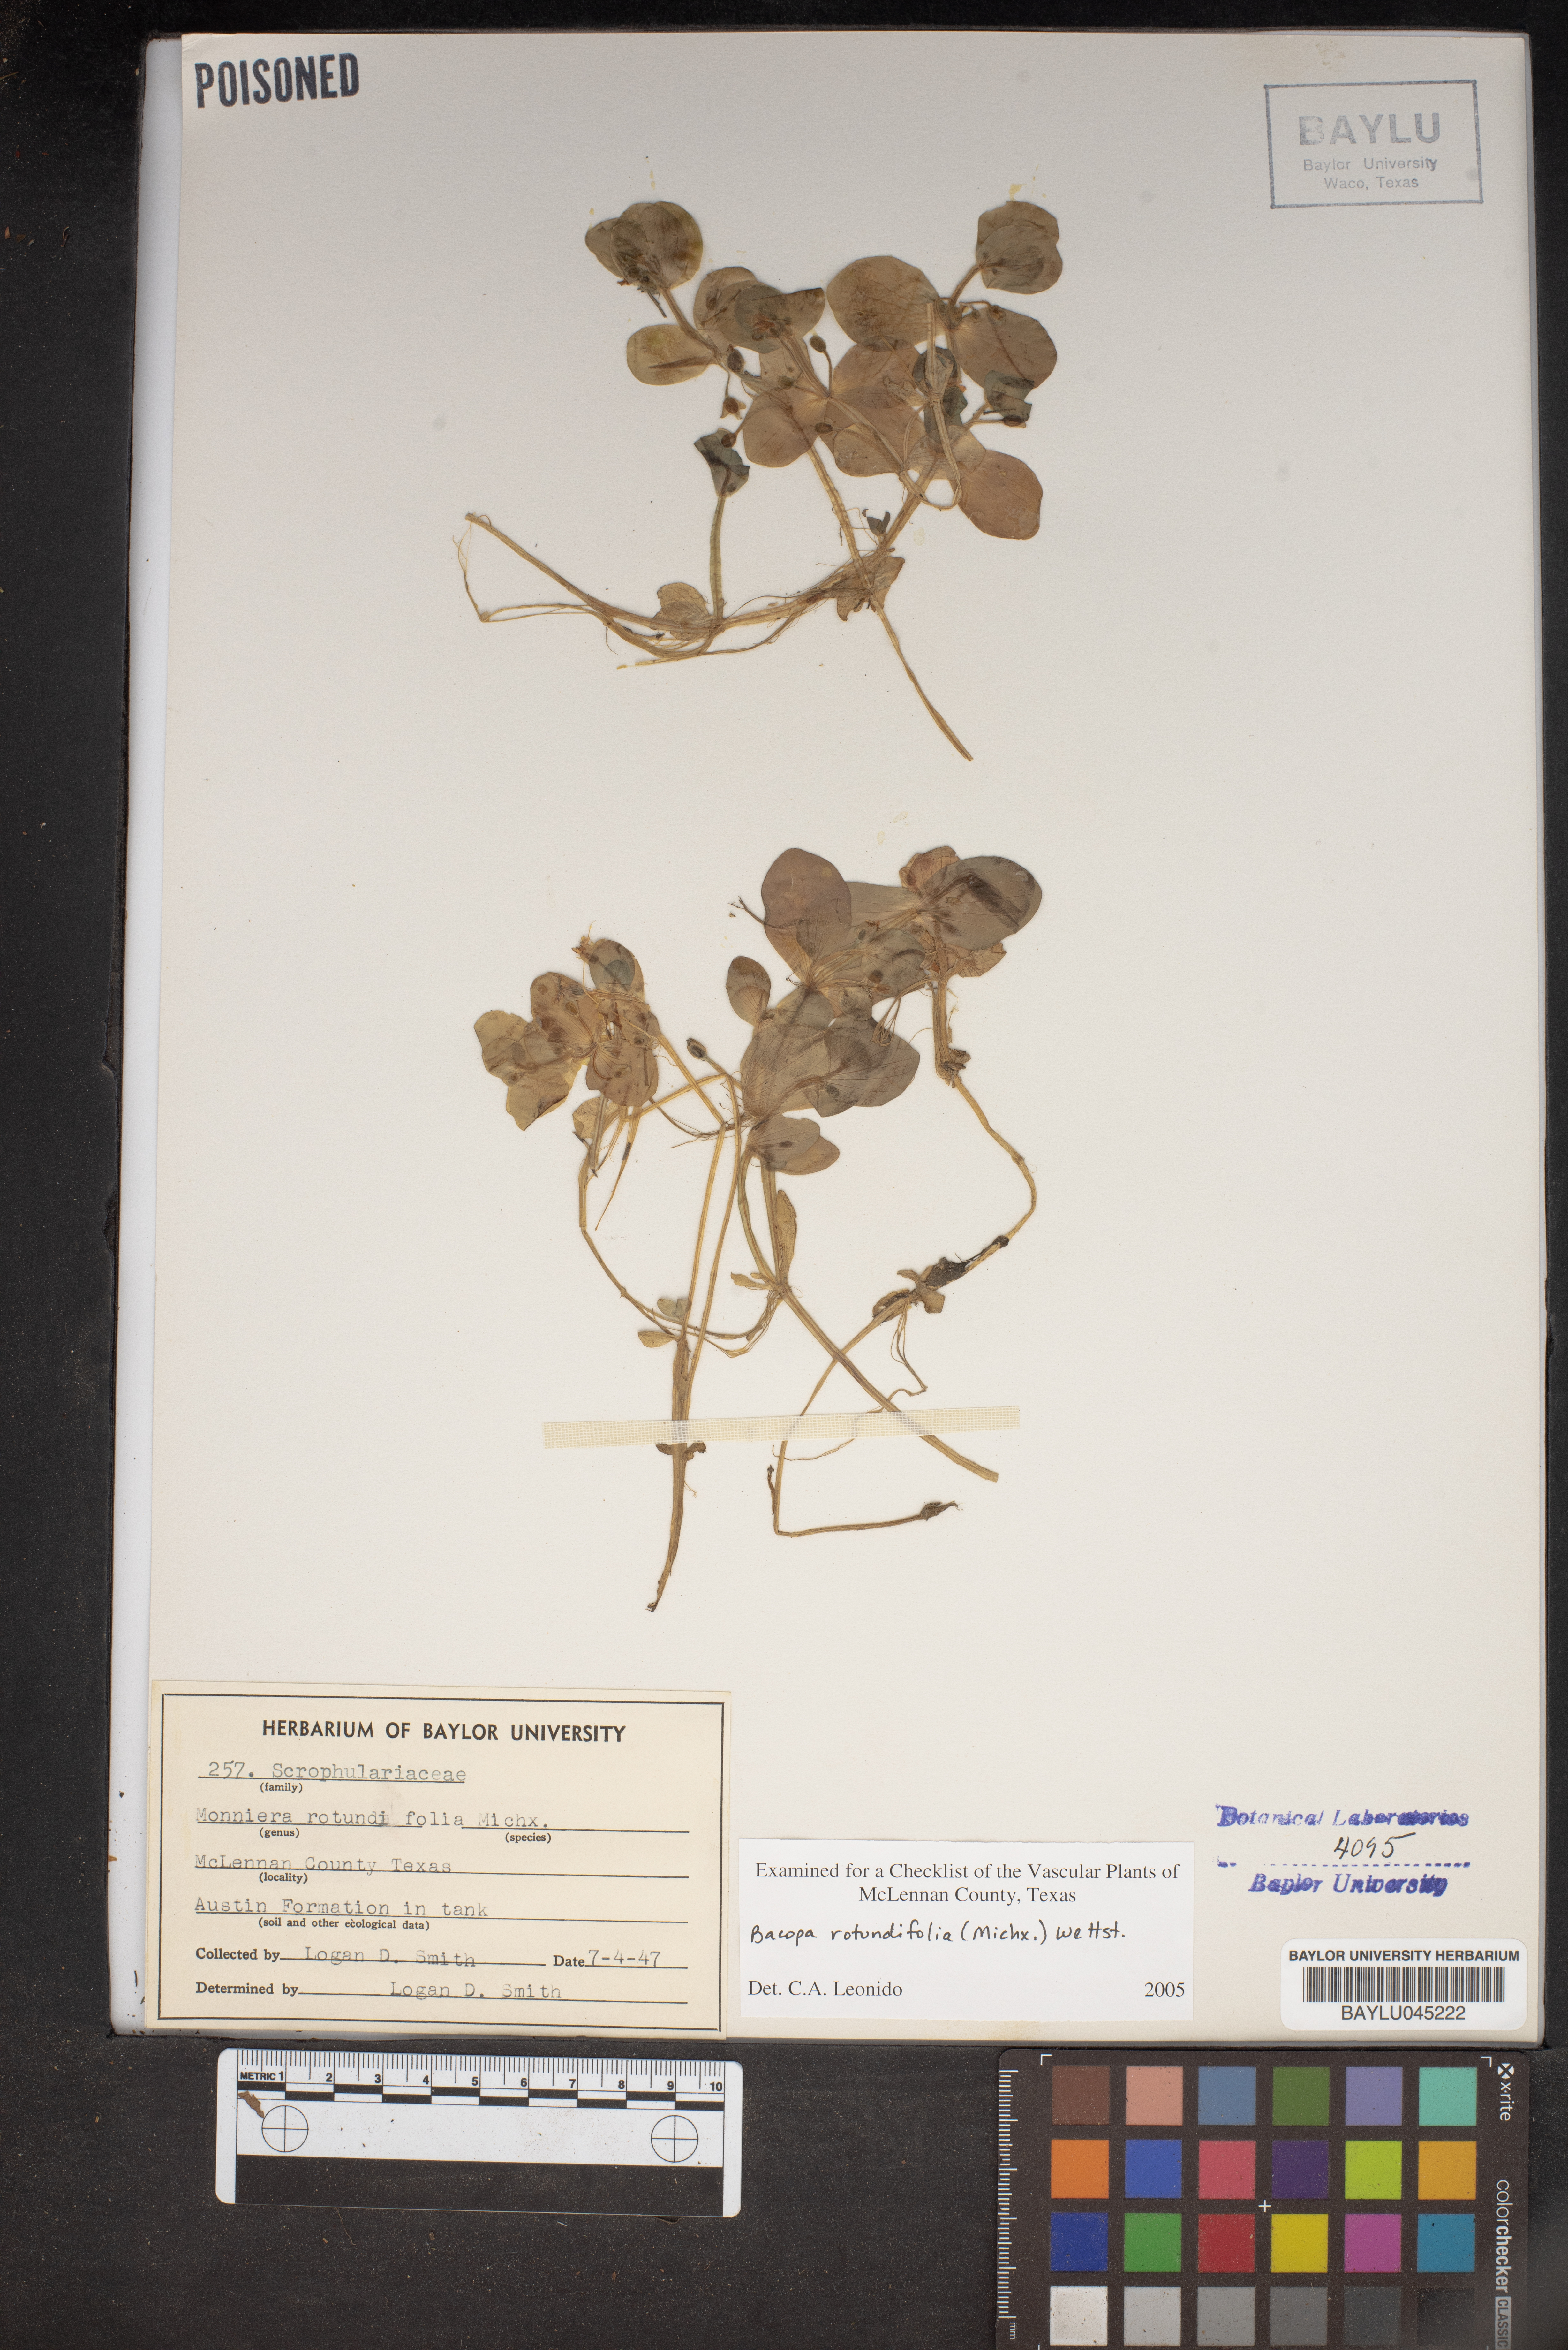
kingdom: Plantae
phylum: Tracheophyta
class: Magnoliopsida
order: Lamiales
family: Plantaginaceae
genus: Bacopa
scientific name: Bacopa rotundifolia
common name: Disc water hyssop
